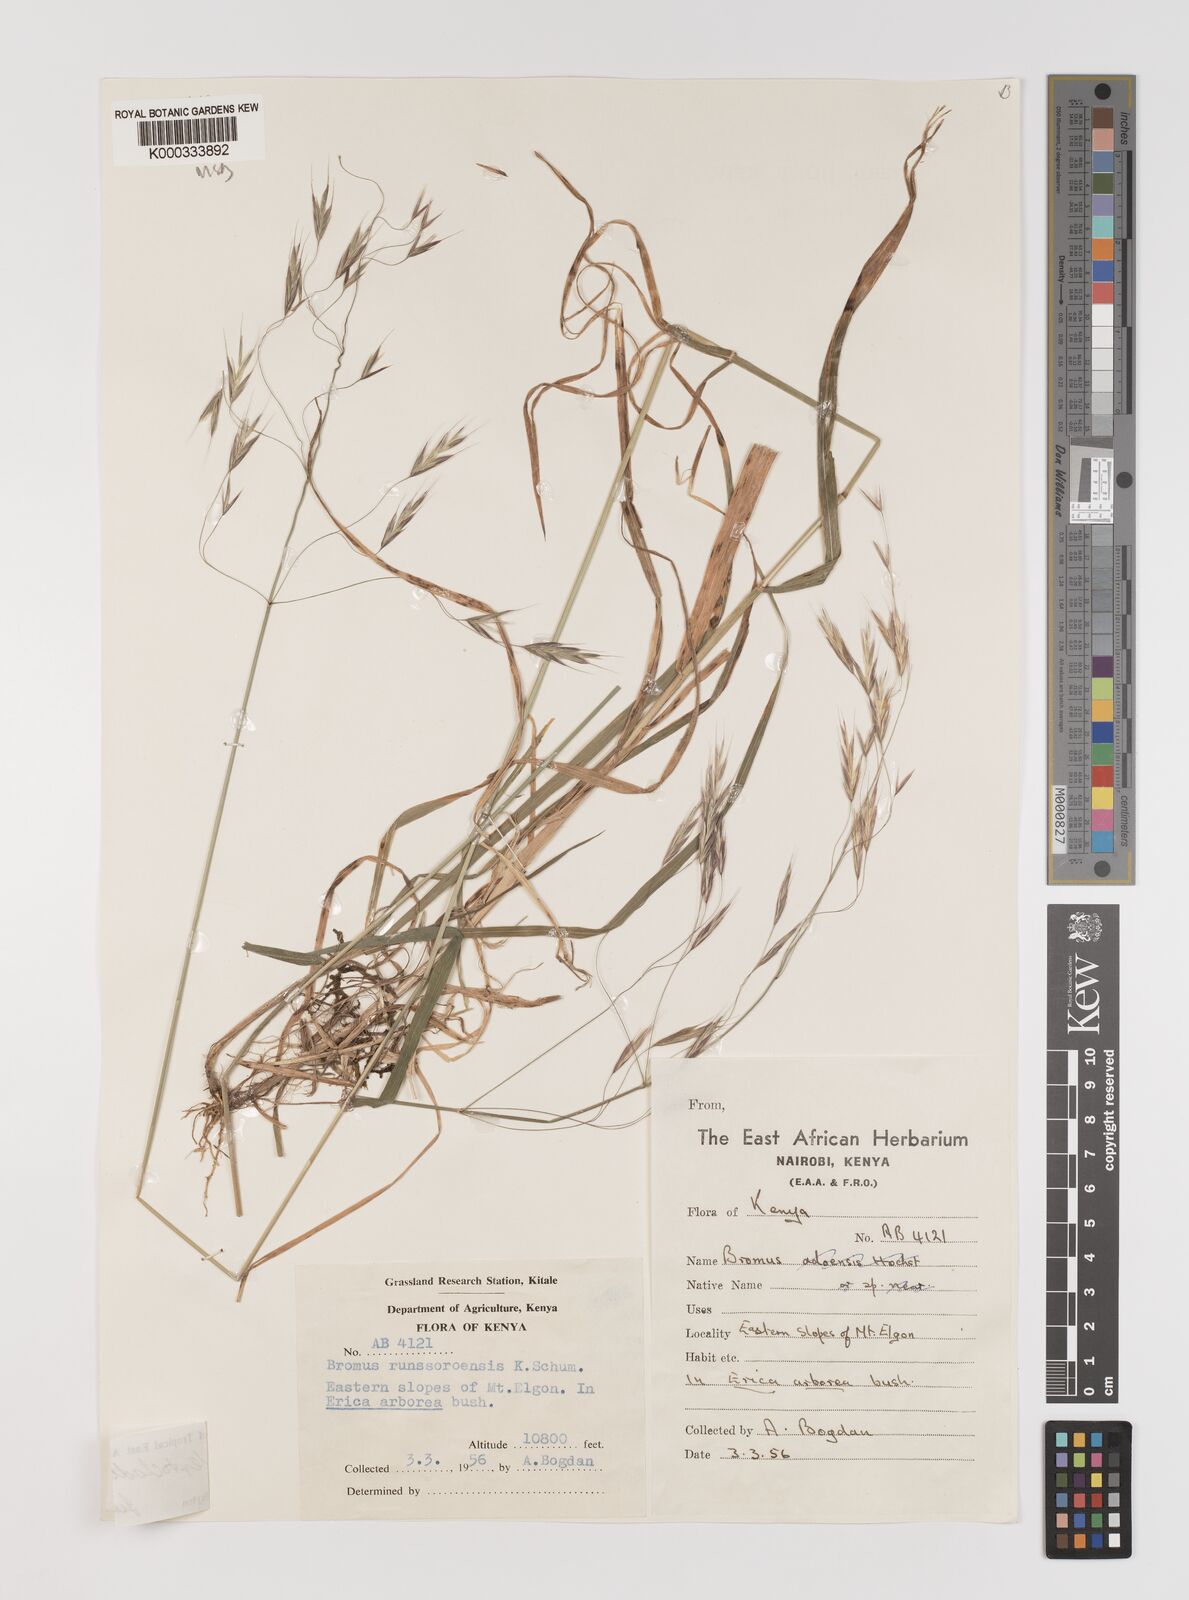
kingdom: Plantae
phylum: Tracheophyta
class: Liliopsida
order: Poales
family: Poaceae
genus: Bromus
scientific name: Bromus leptoclados
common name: Mountain bromegrass
